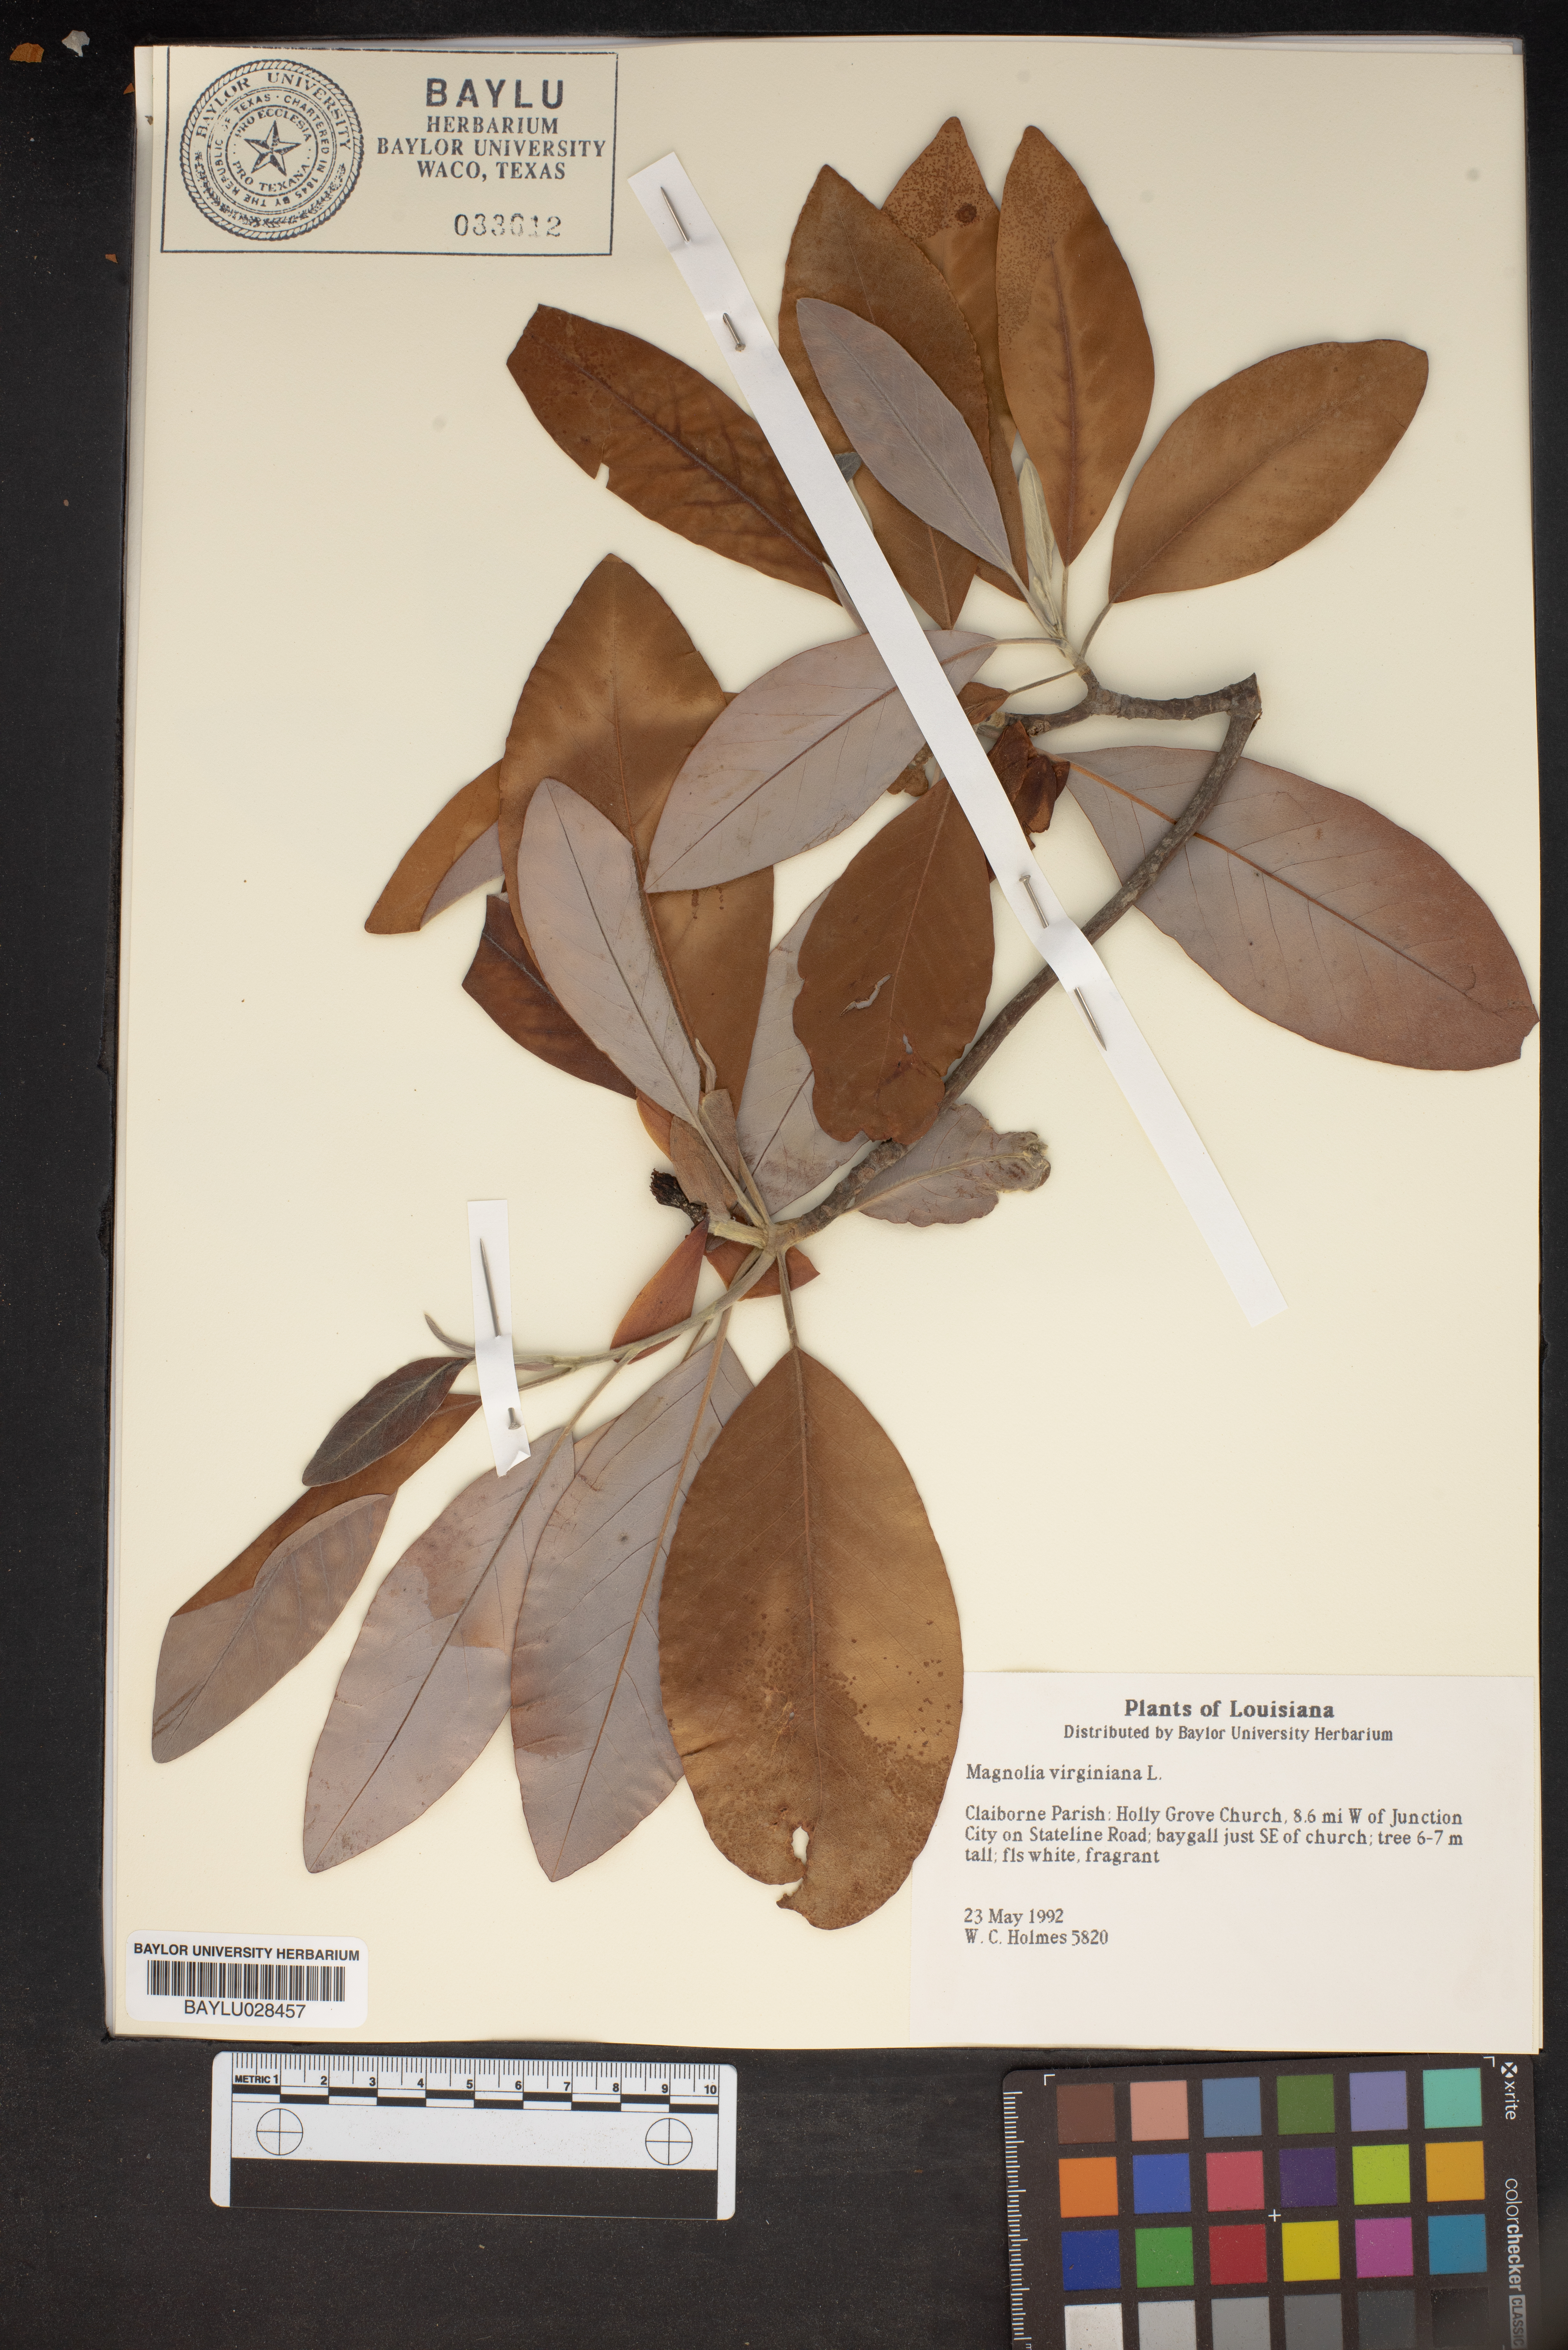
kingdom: Plantae
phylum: Tracheophyta
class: Magnoliopsida
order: Magnoliales
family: Magnoliaceae
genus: Magnolia
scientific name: Magnolia virginiana
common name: Swamp bay
